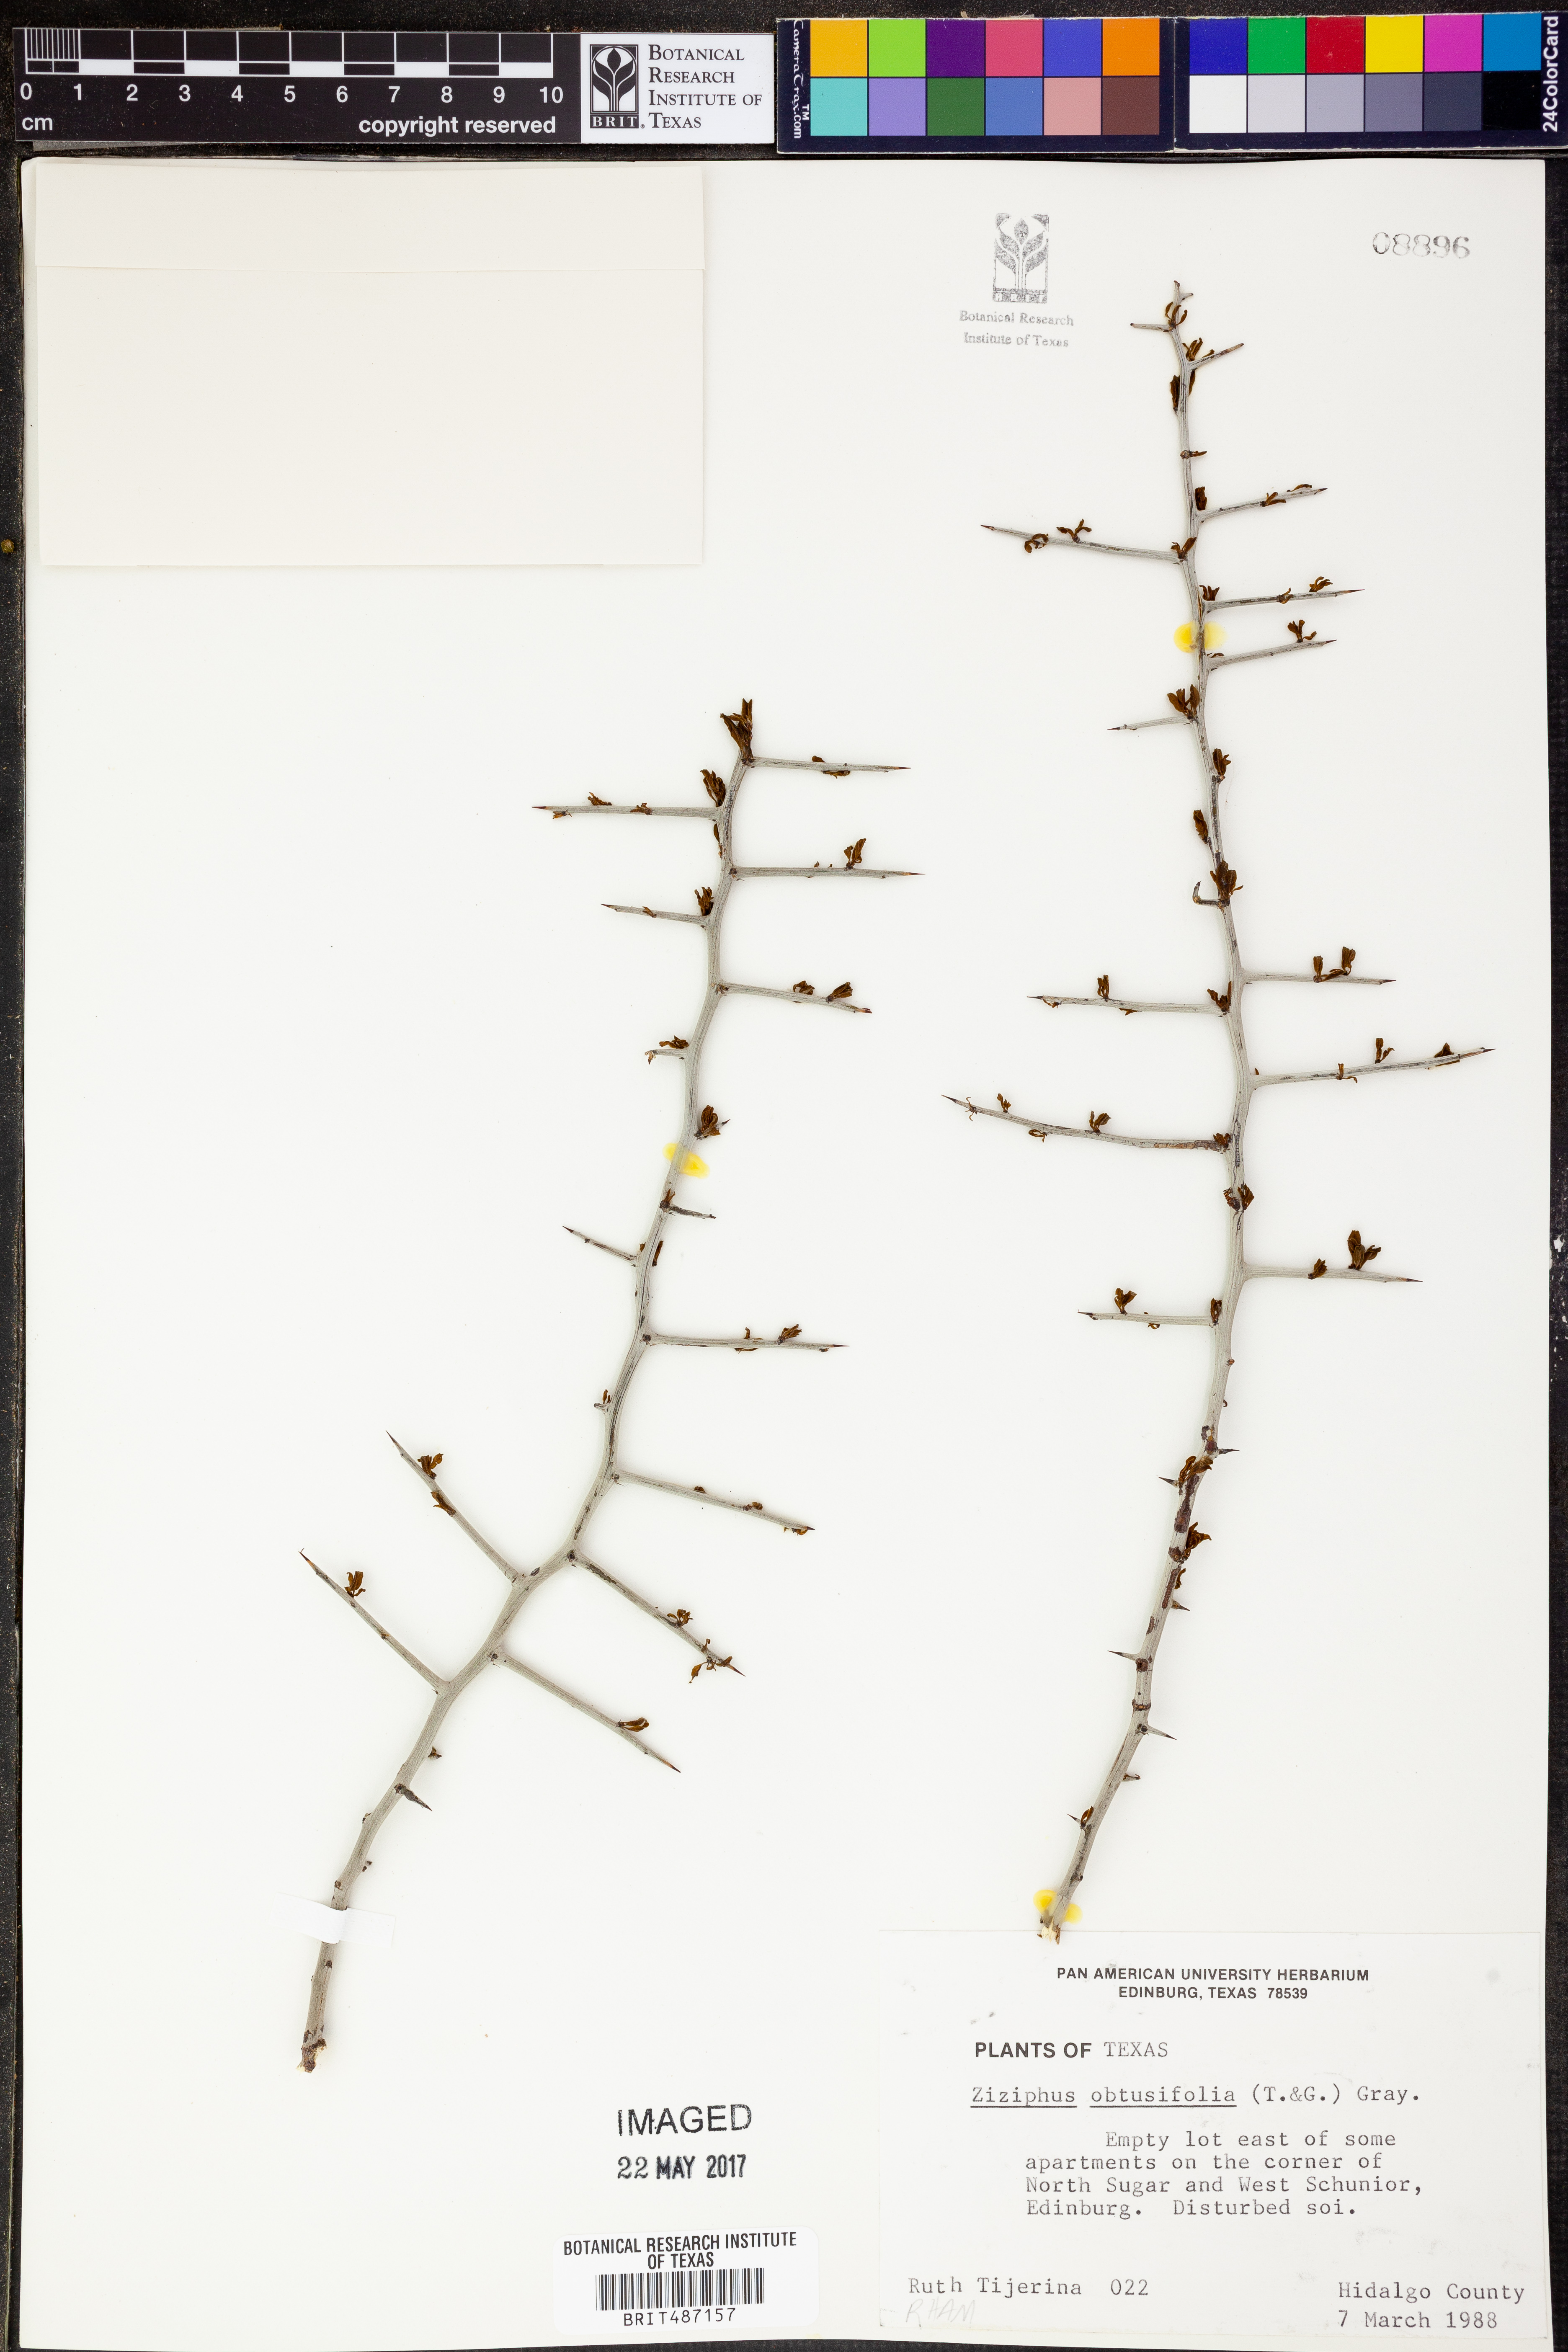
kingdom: Plantae
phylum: Tracheophyta
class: Magnoliopsida
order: Rosales
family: Rhamnaceae
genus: Sarcomphalus
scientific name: Sarcomphalus obtusifolius
